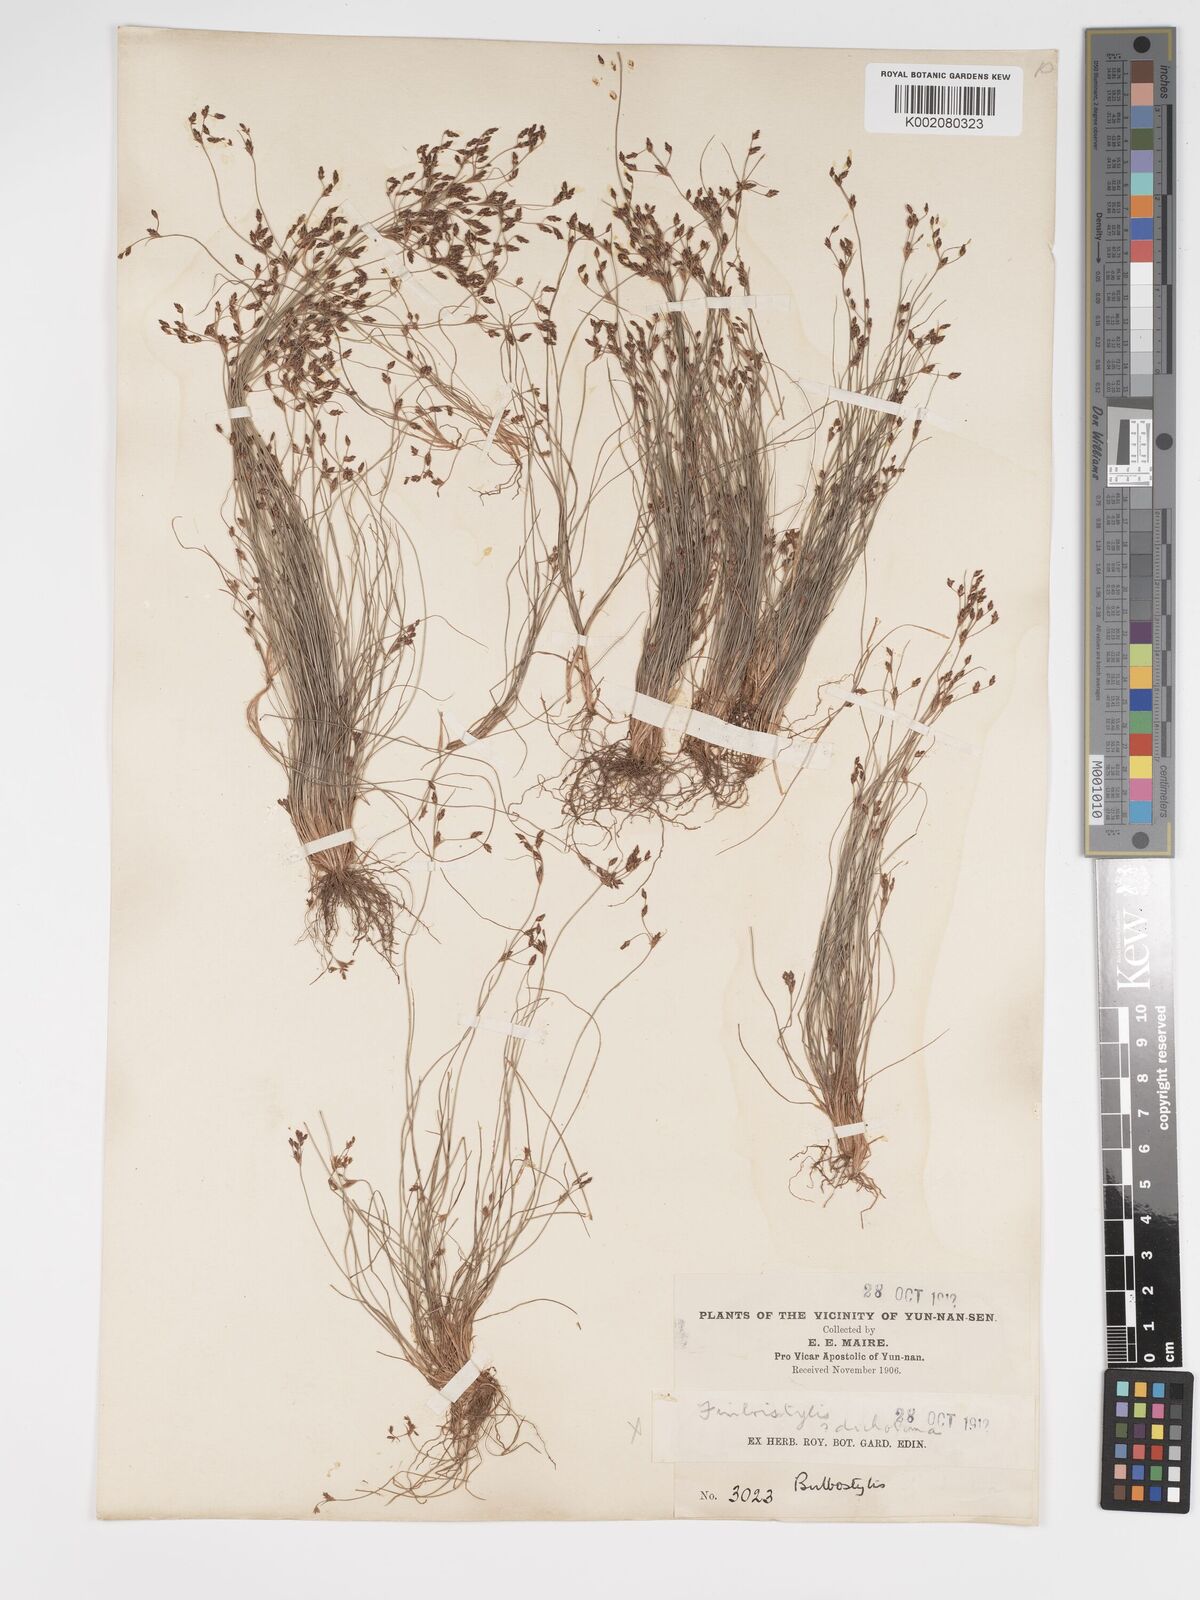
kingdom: Plantae
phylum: Tracheophyta
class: Liliopsida
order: Poales
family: Cyperaceae
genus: Bulbostylis
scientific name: Bulbostylis capillaris
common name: Densetuft hairsedge
